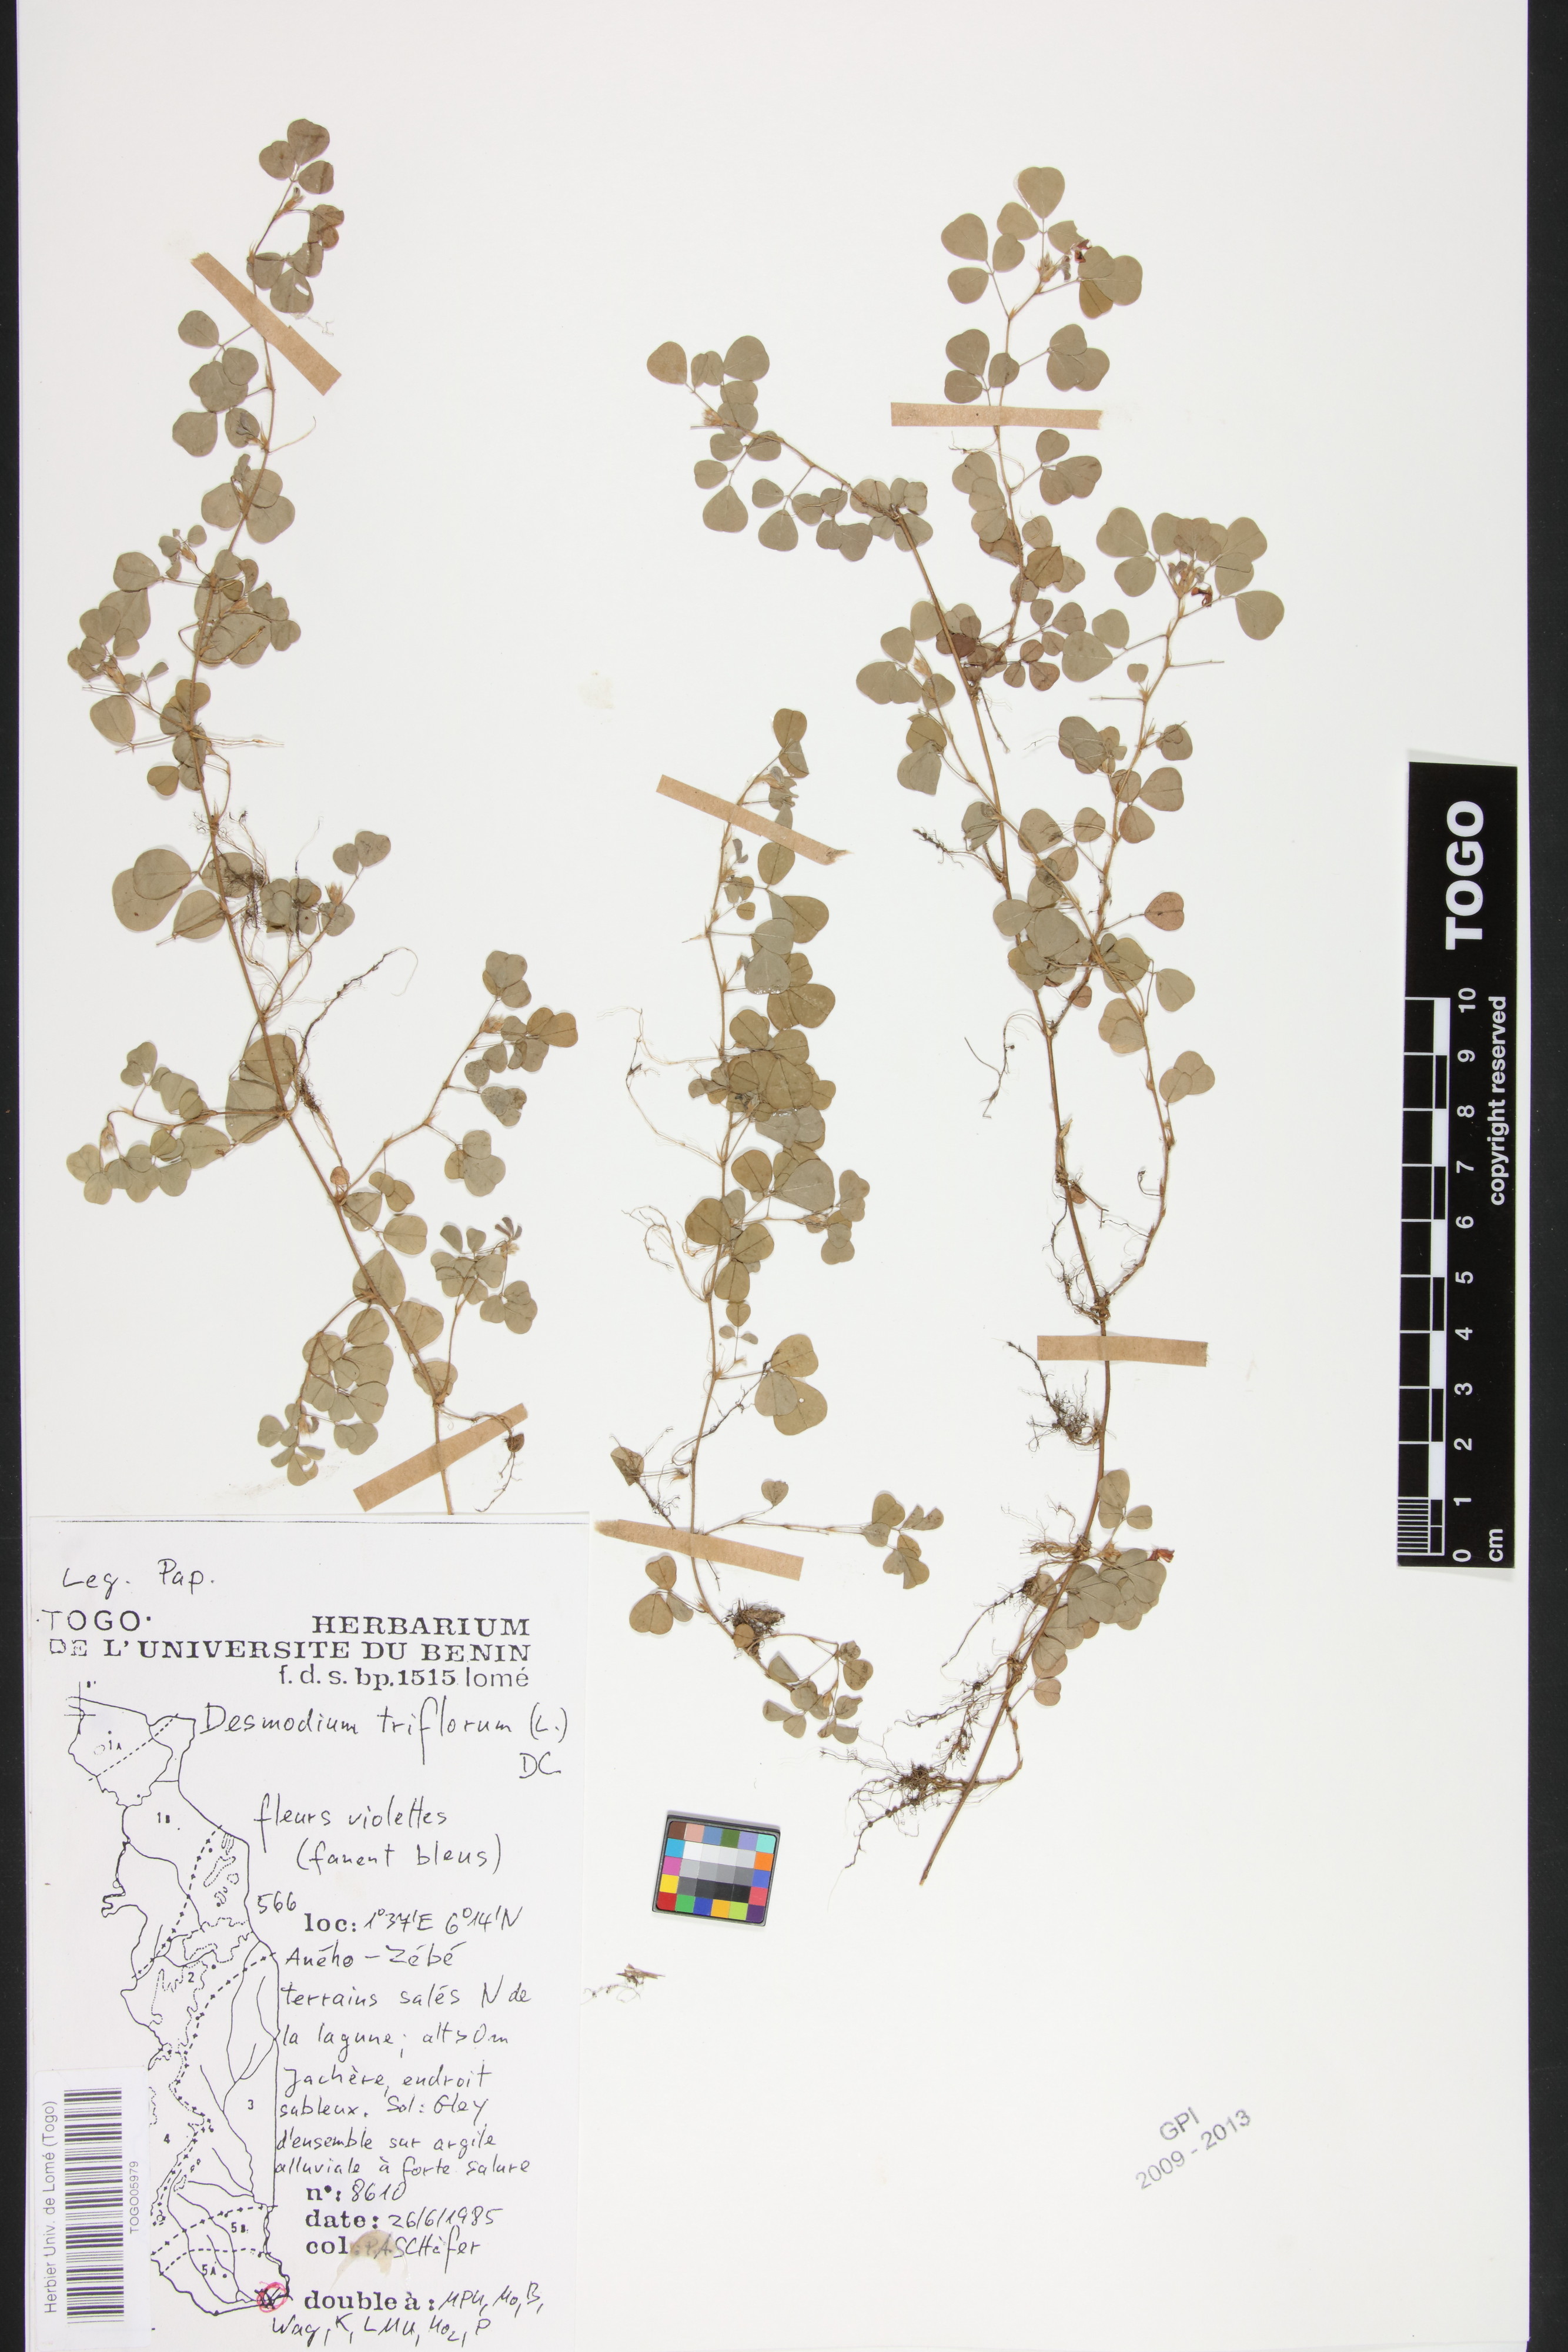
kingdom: Plantae
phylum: Tracheophyta
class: Magnoliopsida
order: Fabales
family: Fabaceae
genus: Grona
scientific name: Grona triflora
